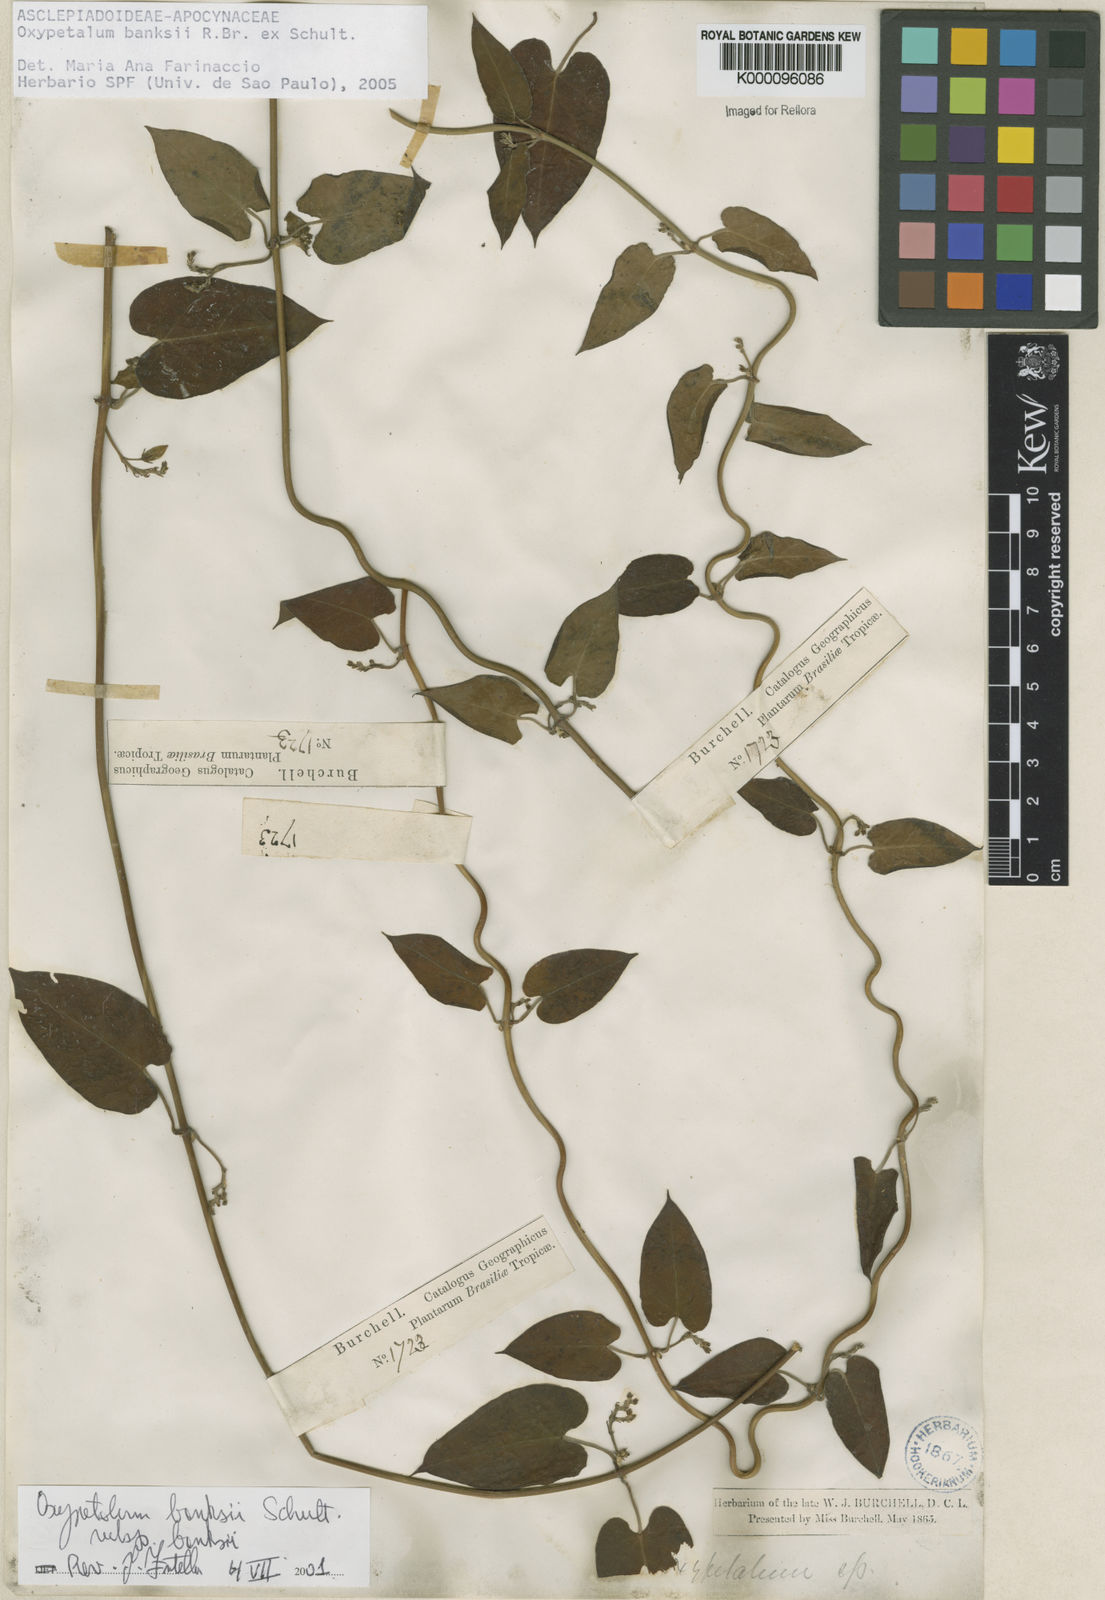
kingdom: Plantae
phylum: Tracheophyta
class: Magnoliopsida
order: Gentianales
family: Apocynaceae
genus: Oxypetalum
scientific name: Oxypetalum banksii
